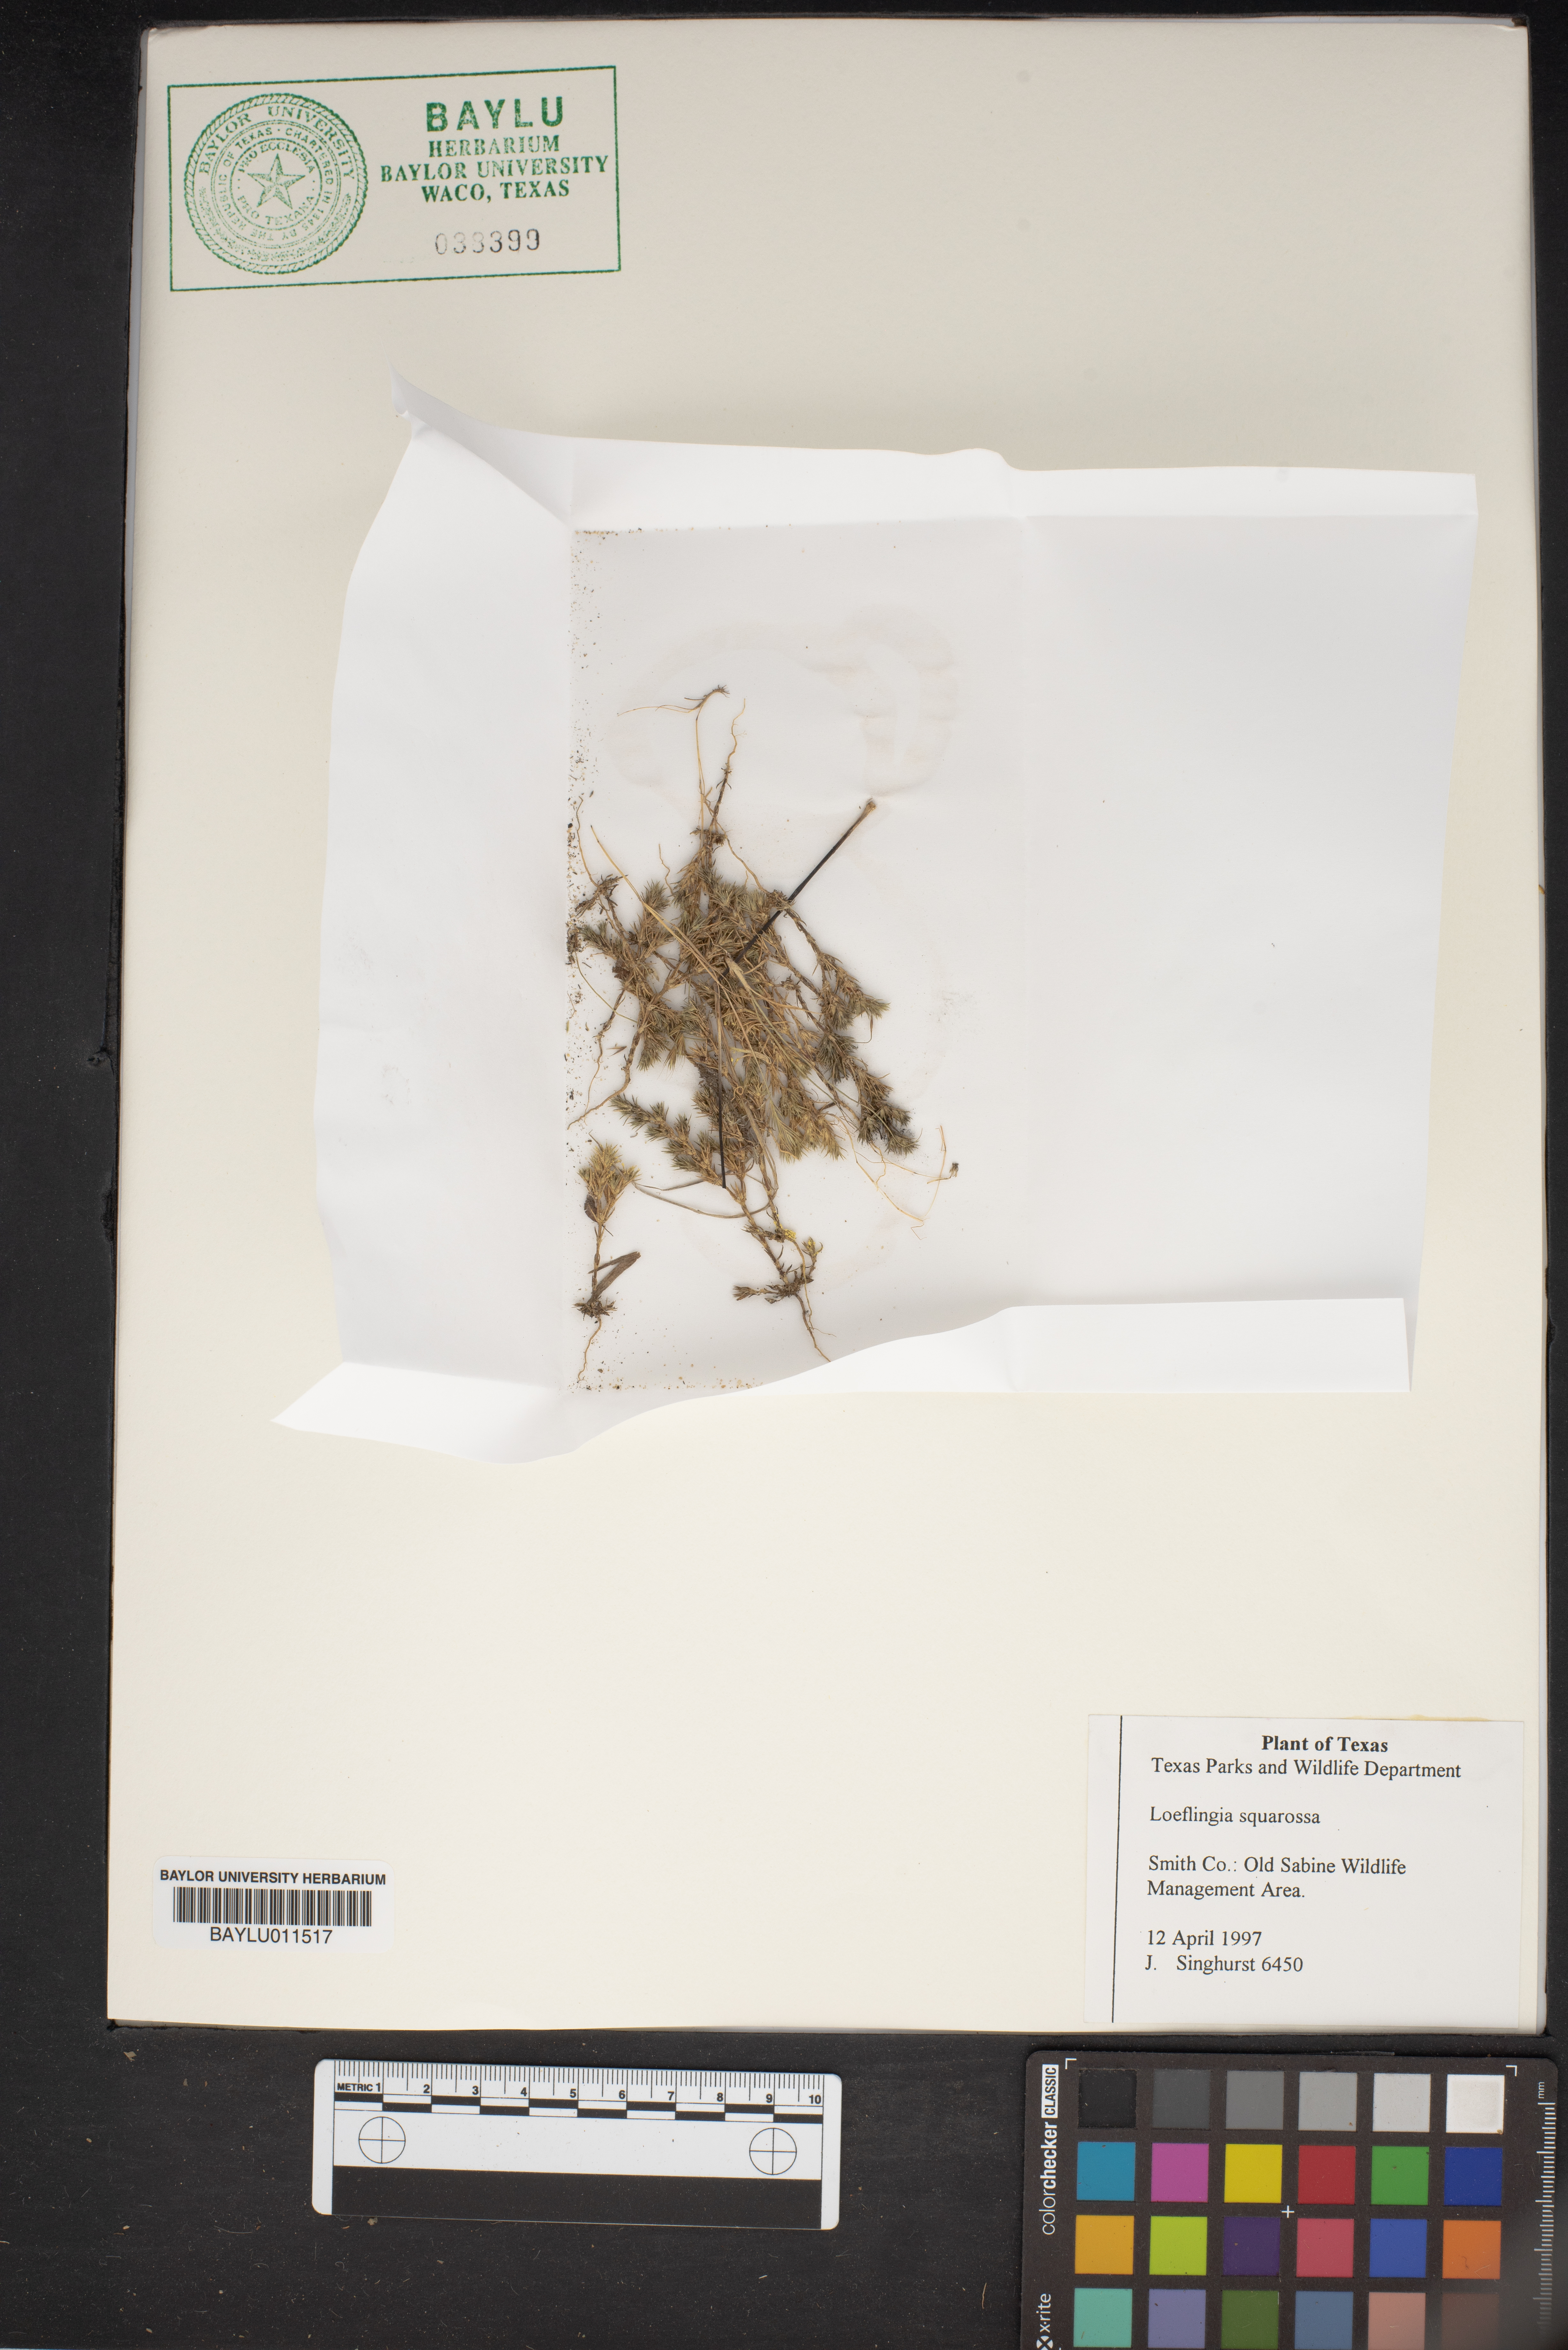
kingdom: Plantae
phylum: Tracheophyta
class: Magnoliopsida
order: Caryophyllales
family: Caryophyllaceae
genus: Loeflingia
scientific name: Loeflingia squarrosa
